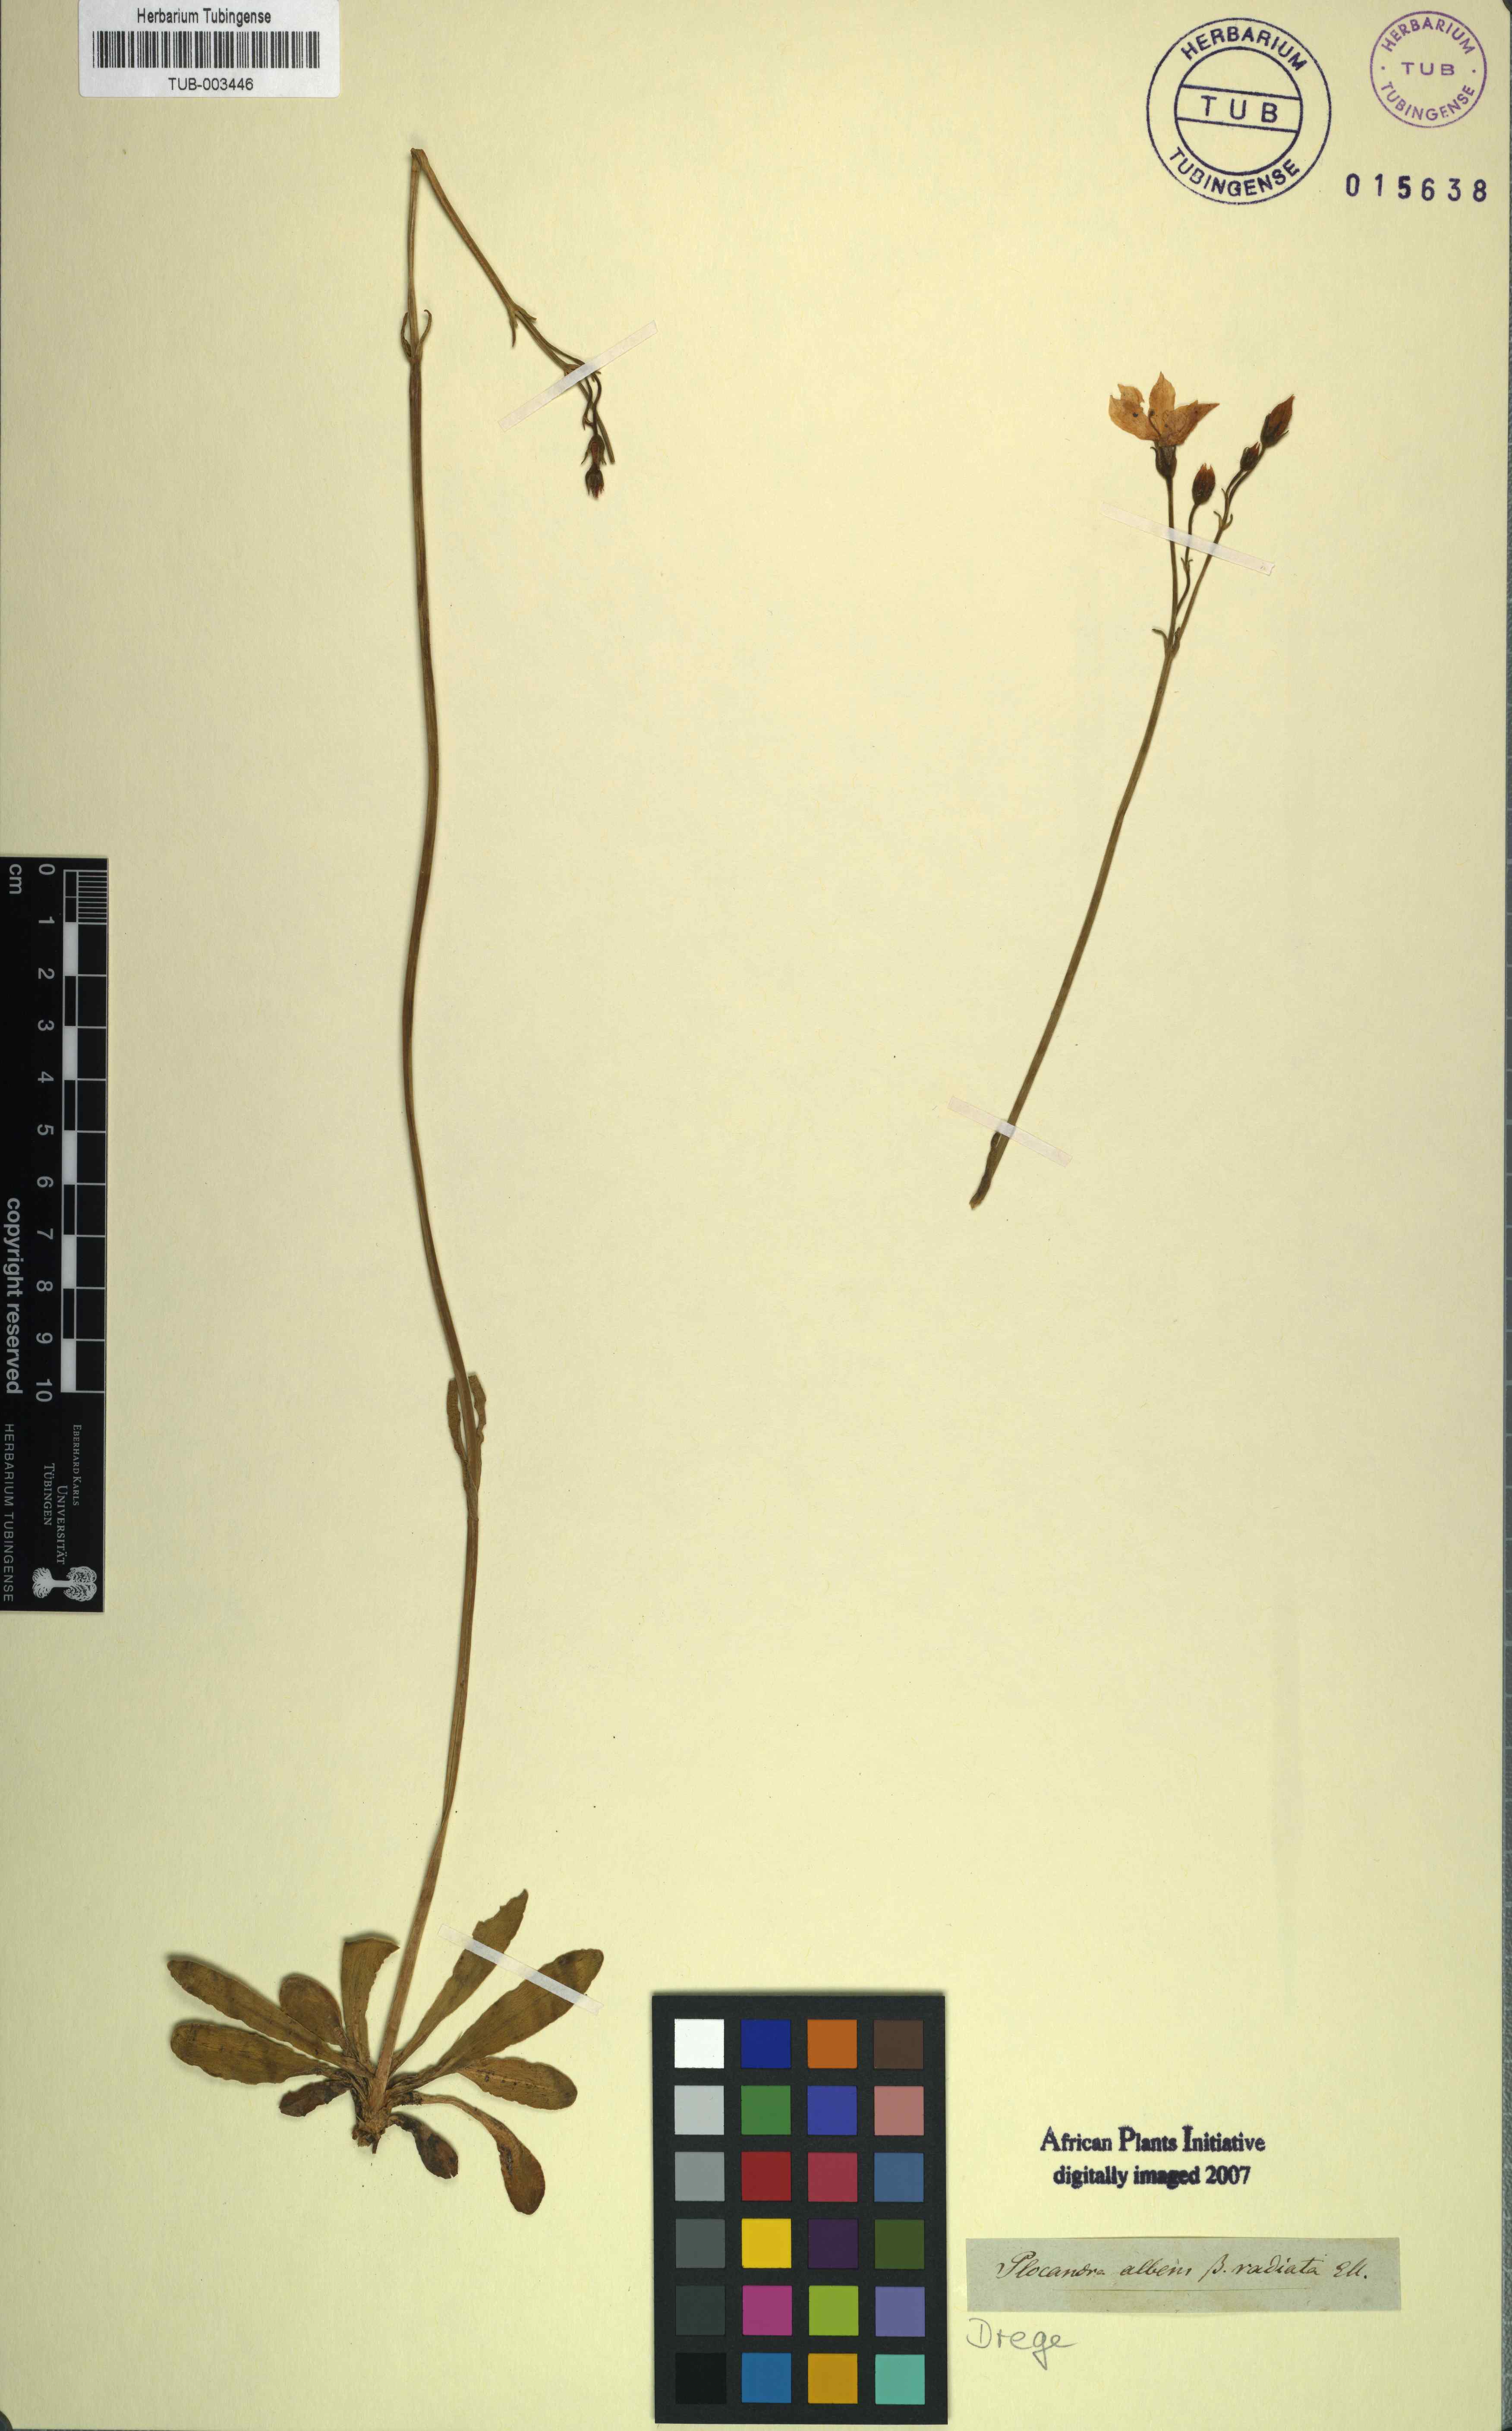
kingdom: Plantae
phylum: Tracheophyta
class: Magnoliopsida
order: Gentianales
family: Gentianaceae
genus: Chironia
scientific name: Chironia palustris
